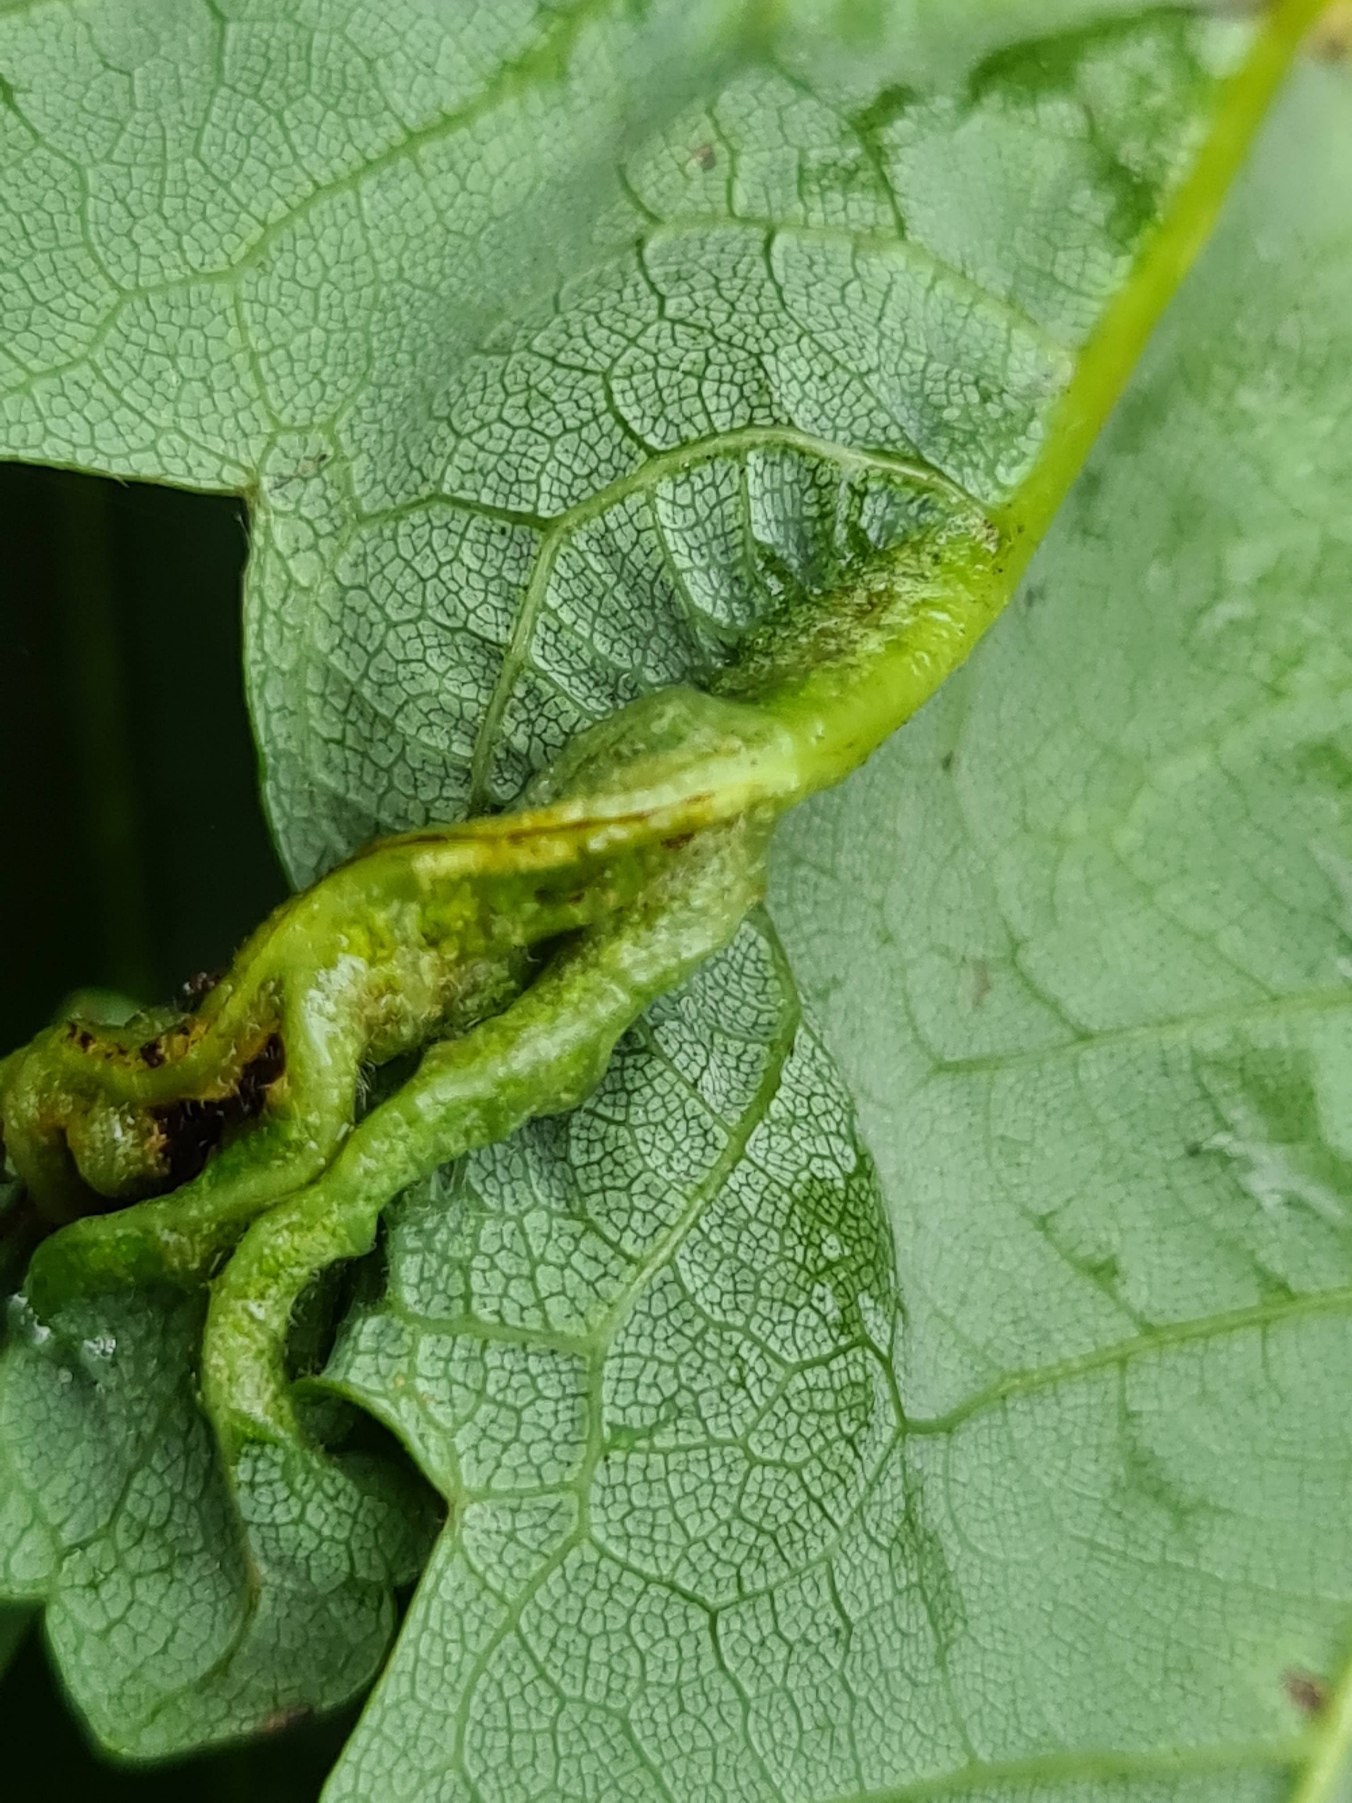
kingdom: Animalia
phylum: Arthropoda
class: Insecta
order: Diptera
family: Cecidomyiidae
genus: Dasineura
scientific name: Dasineura irregularis
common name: Ahornkrusegalmyg
